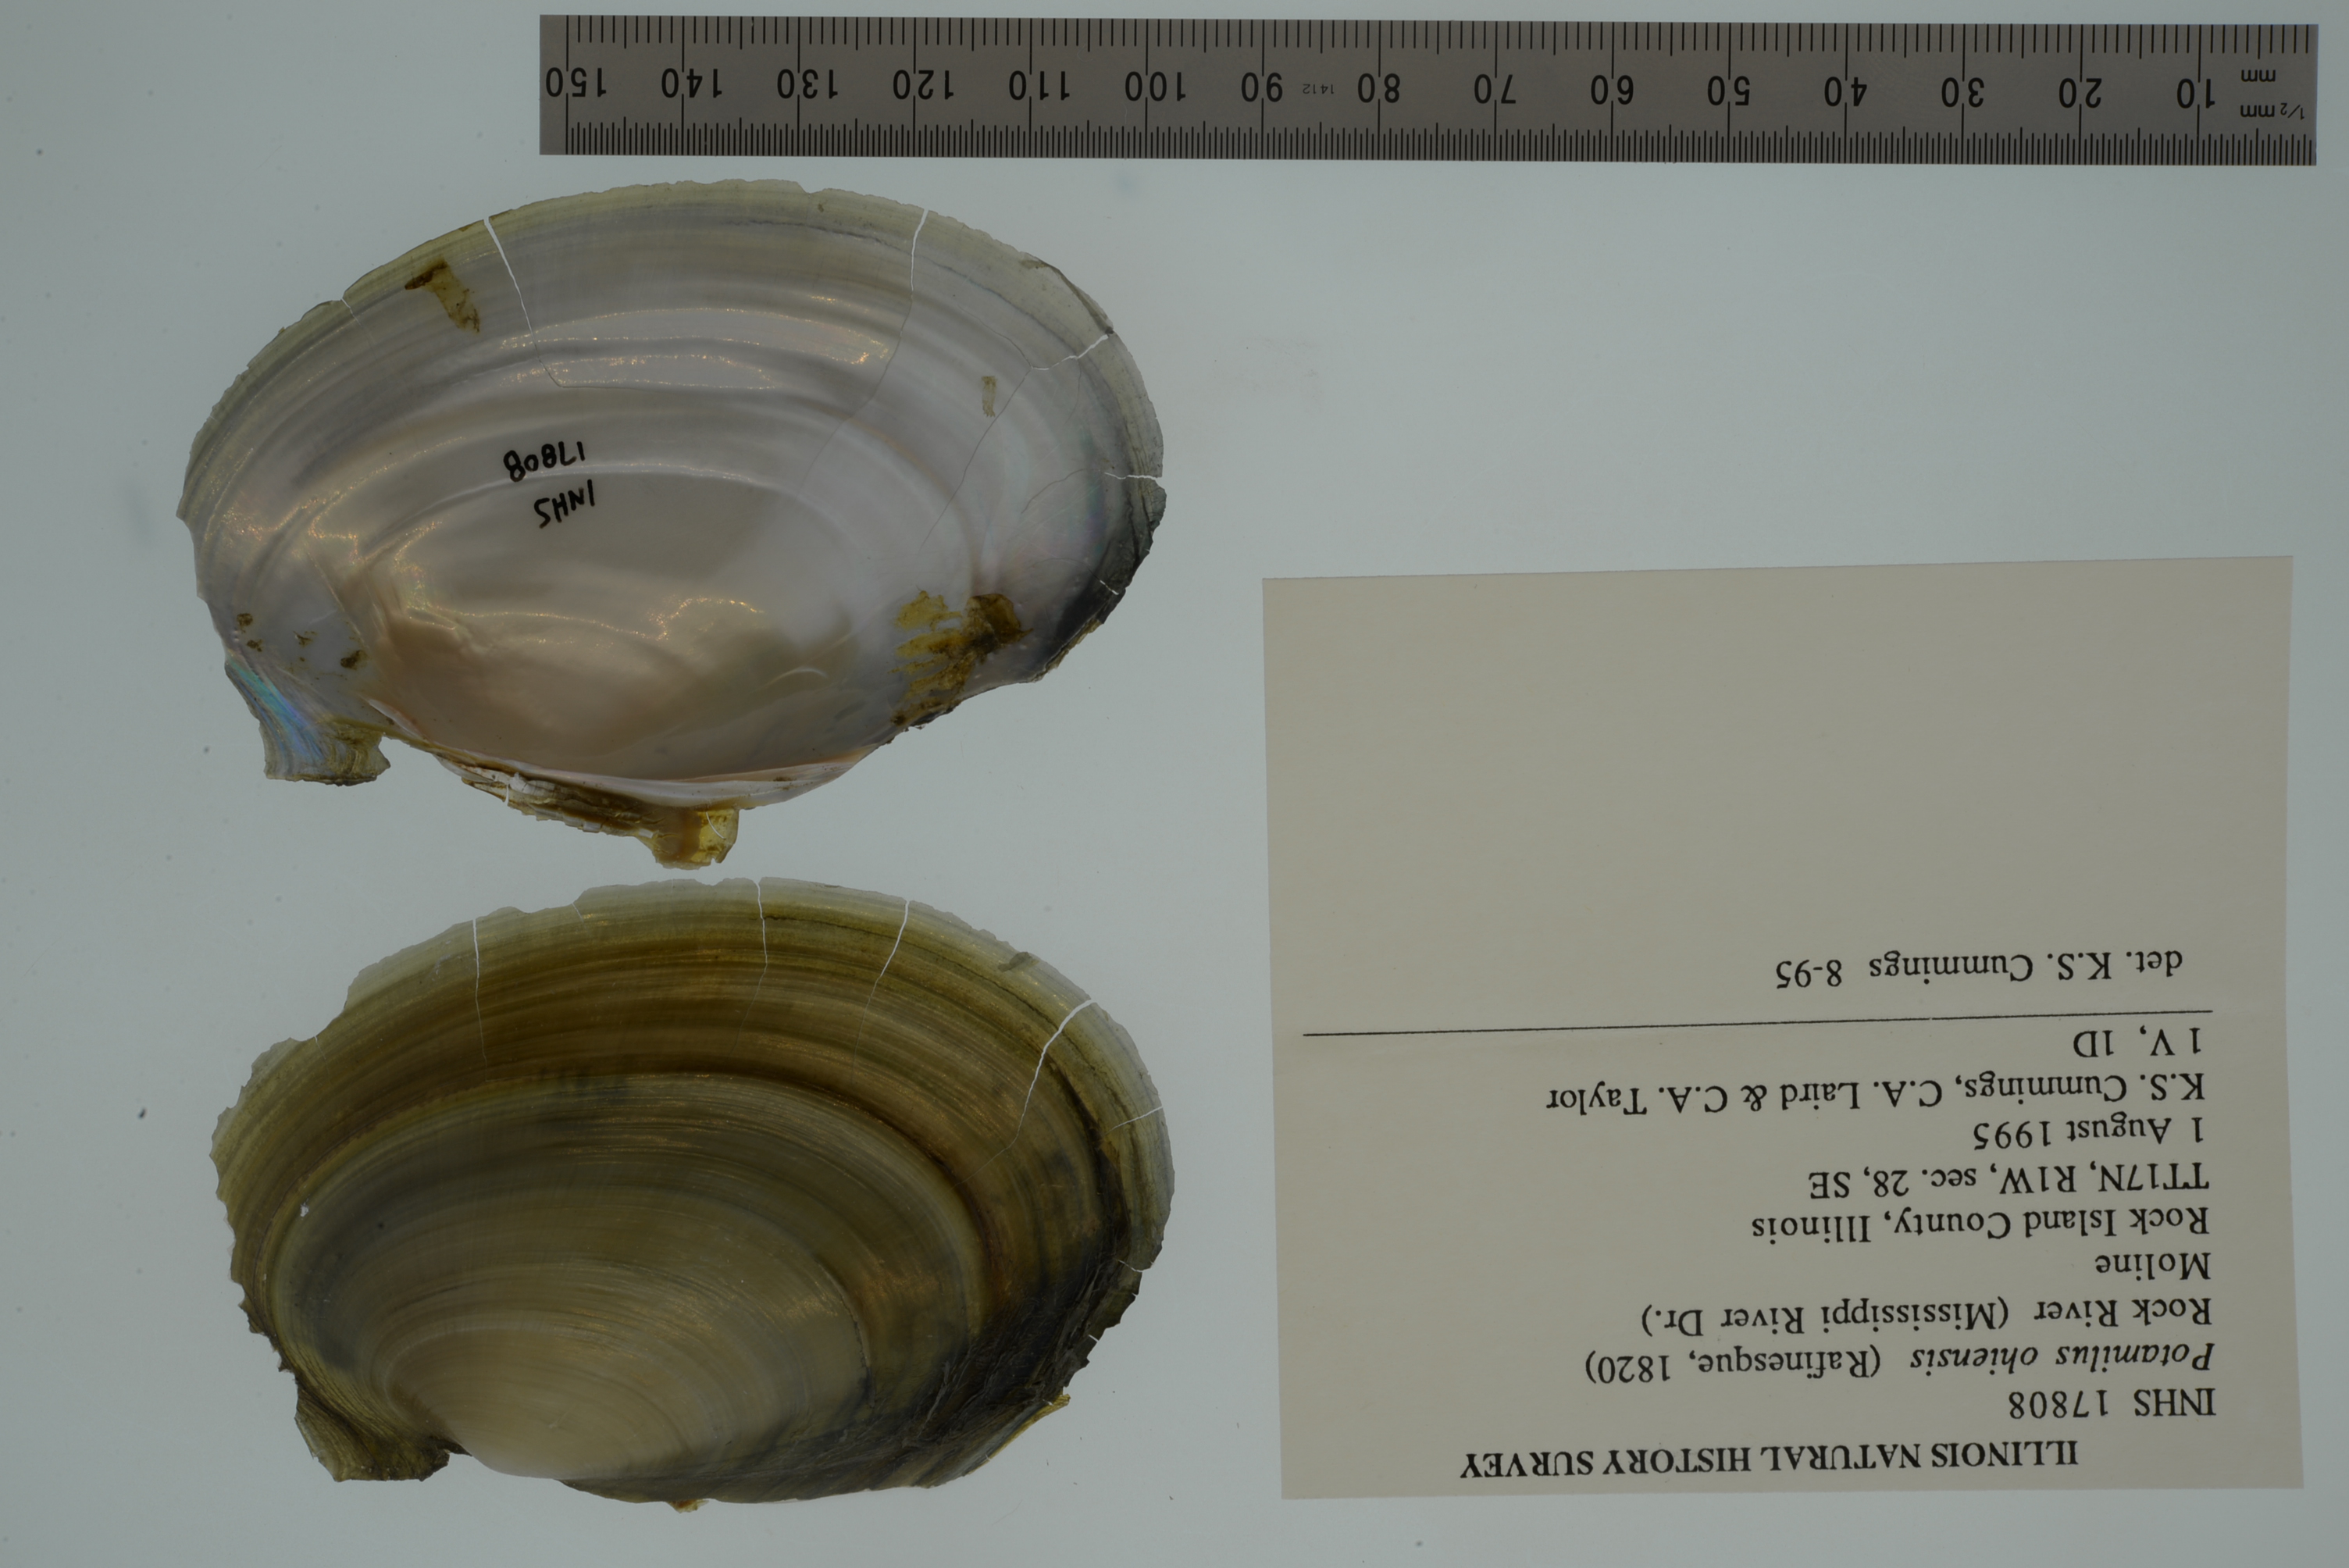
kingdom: Animalia
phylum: Mollusca
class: Bivalvia
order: Unionida
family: Unionidae
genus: Potamilus
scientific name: Potamilus ohiensis
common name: Pink papershell
